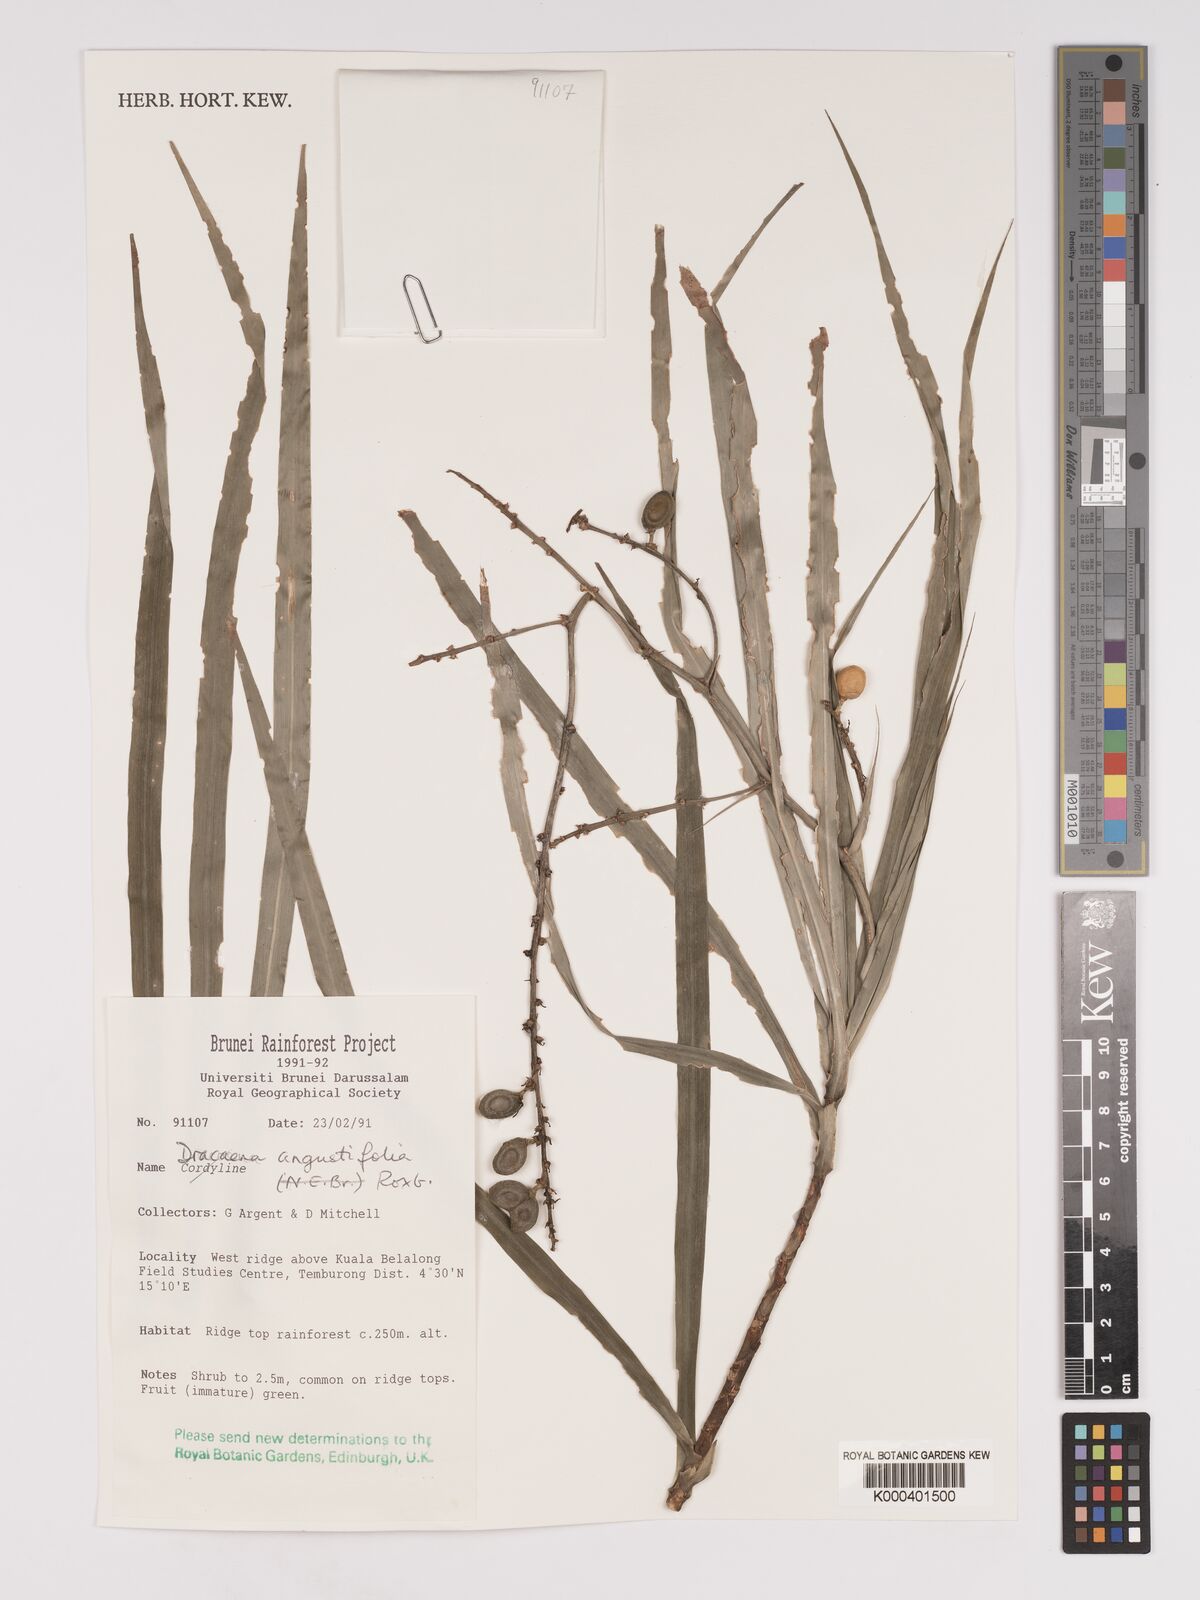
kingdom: Plantae
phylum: Tracheophyta
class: Liliopsida
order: Asparagales
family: Asparagaceae
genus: Dracaena
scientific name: Dracaena angustifolia
